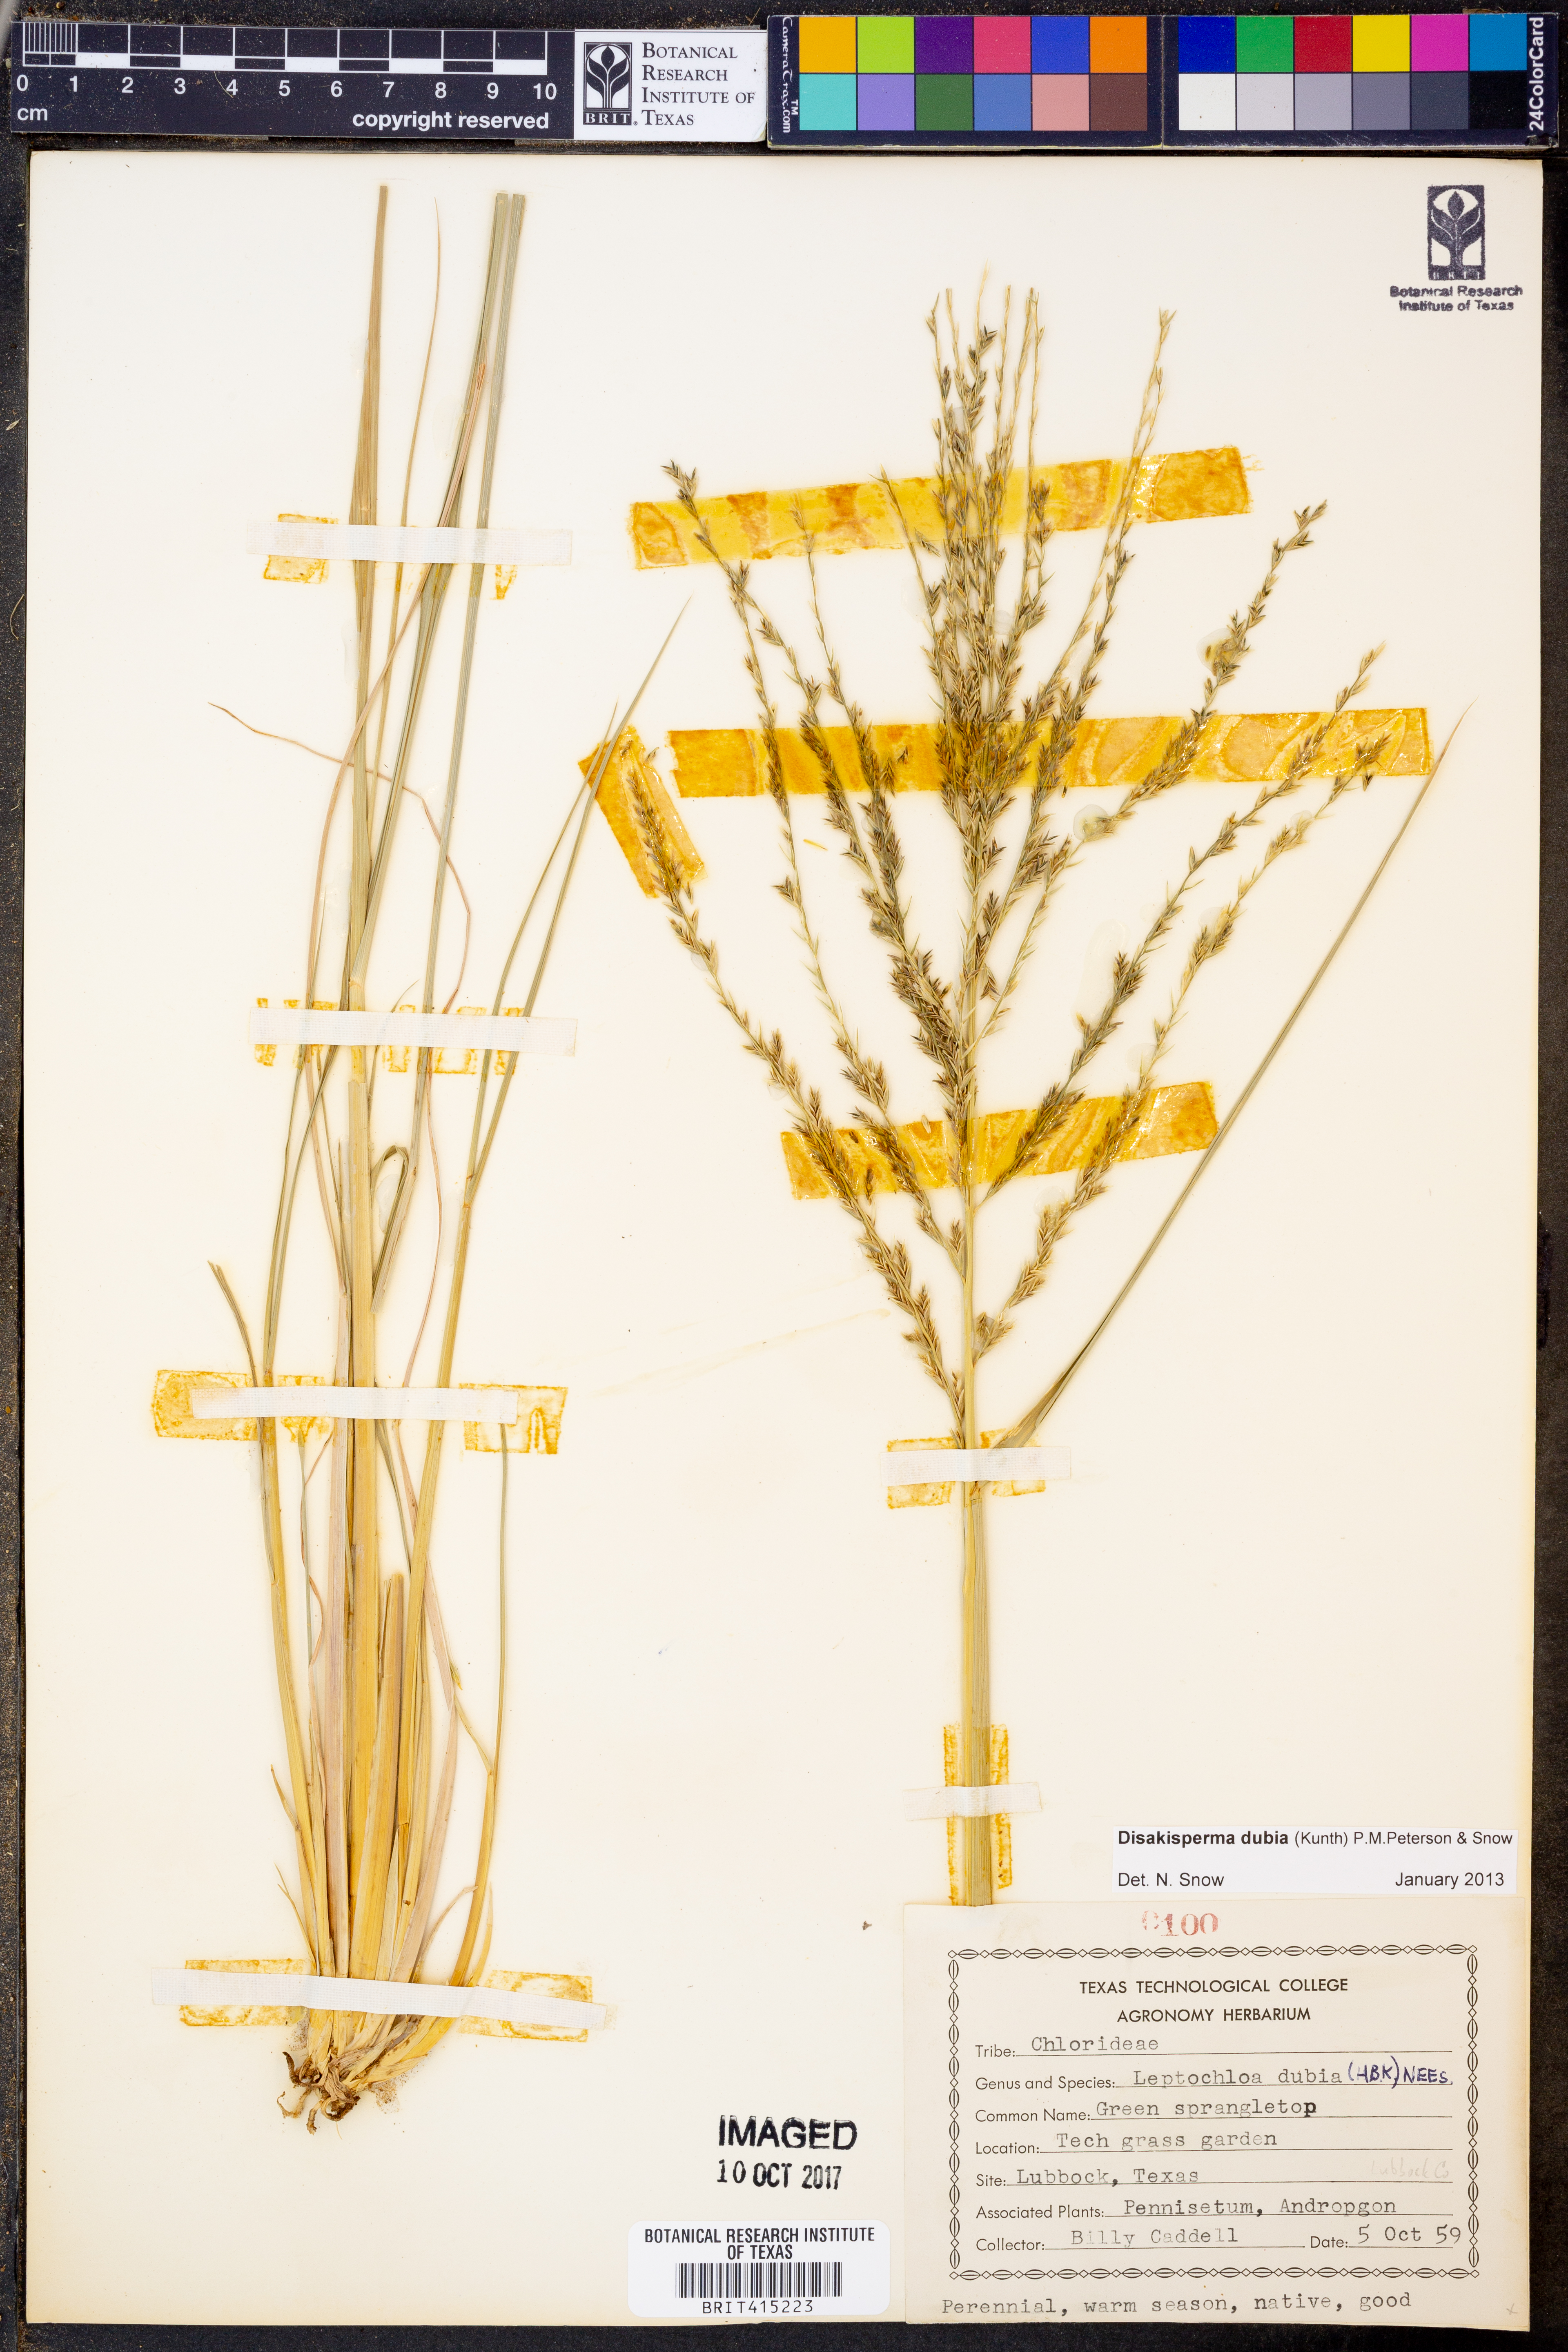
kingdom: Plantae
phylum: Tracheophyta
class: Liliopsida
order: Poales
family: Poaceae
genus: Disakisperma
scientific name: Disakisperma dubium
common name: Green sprangletop
